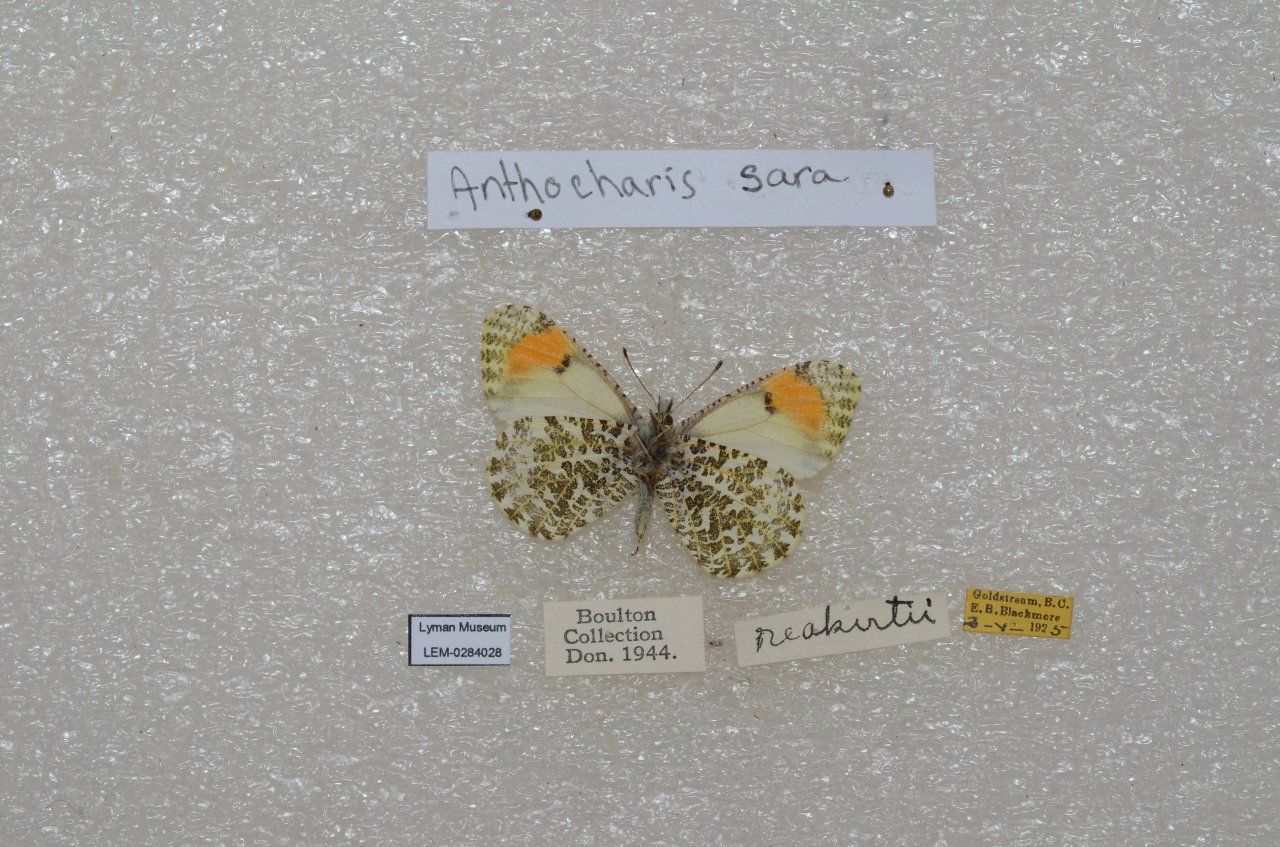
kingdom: Animalia
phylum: Arthropoda
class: Insecta
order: Lepidoptera
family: Pieridae
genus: Anthocharis
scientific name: Anthocharis sara
